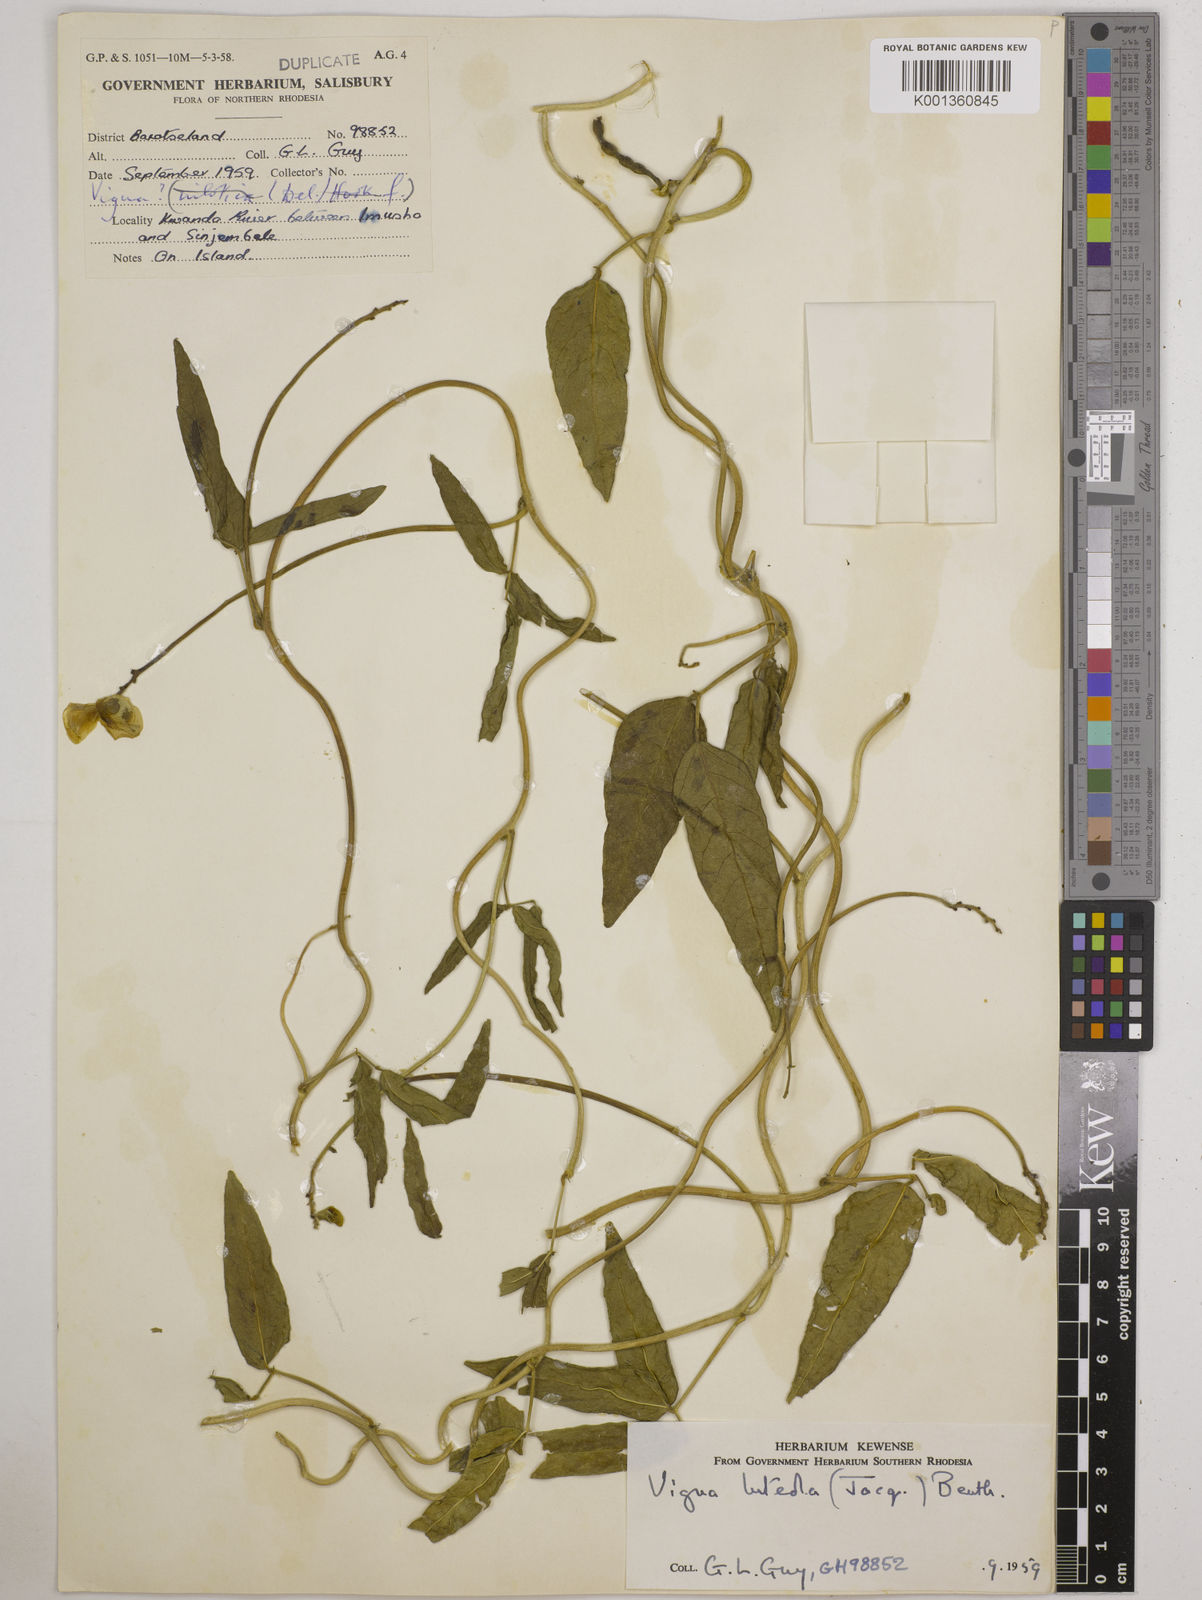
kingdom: Plantae
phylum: Tracheophyta
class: Magnoliopsida
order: Fabales
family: Fabaceae
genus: Vigna
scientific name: Vigna luteola
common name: Hairypod cowpea
